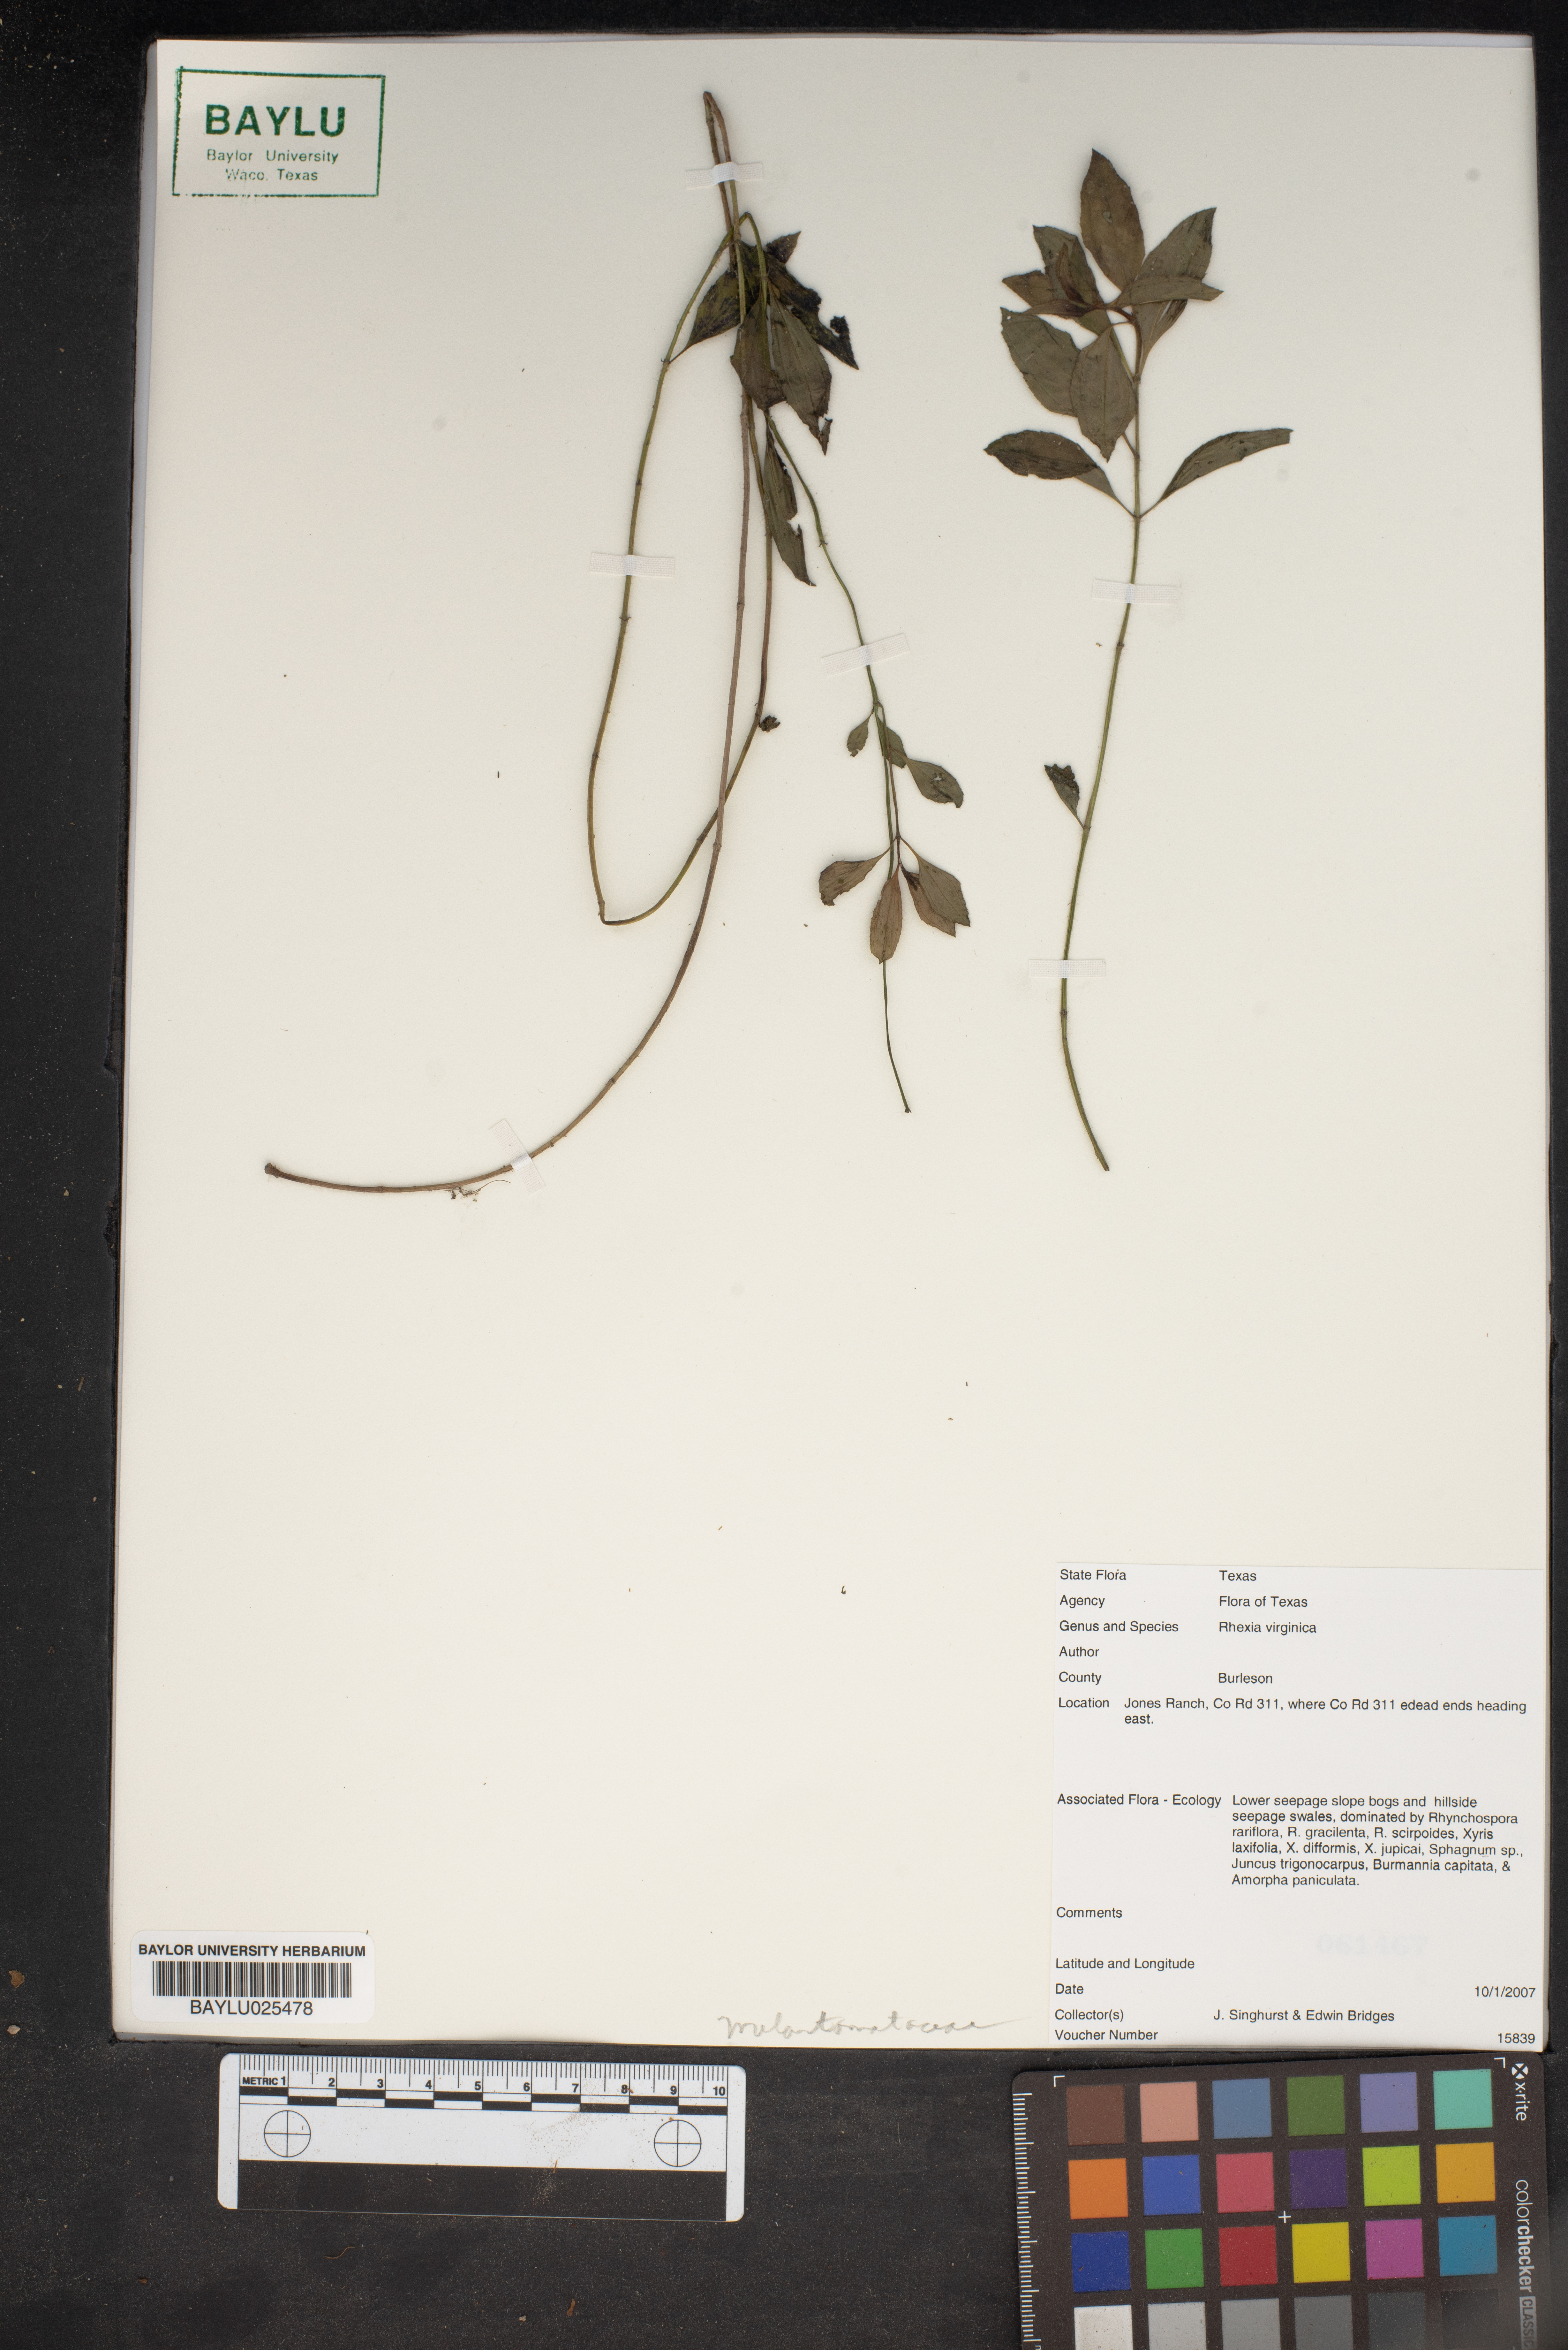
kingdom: Plantae
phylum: Tracheophyta
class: Magnoliopsida
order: Myrtales
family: Melastomataceae
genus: Rhexia
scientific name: Rhexia virginica
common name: Common meadow beauty
